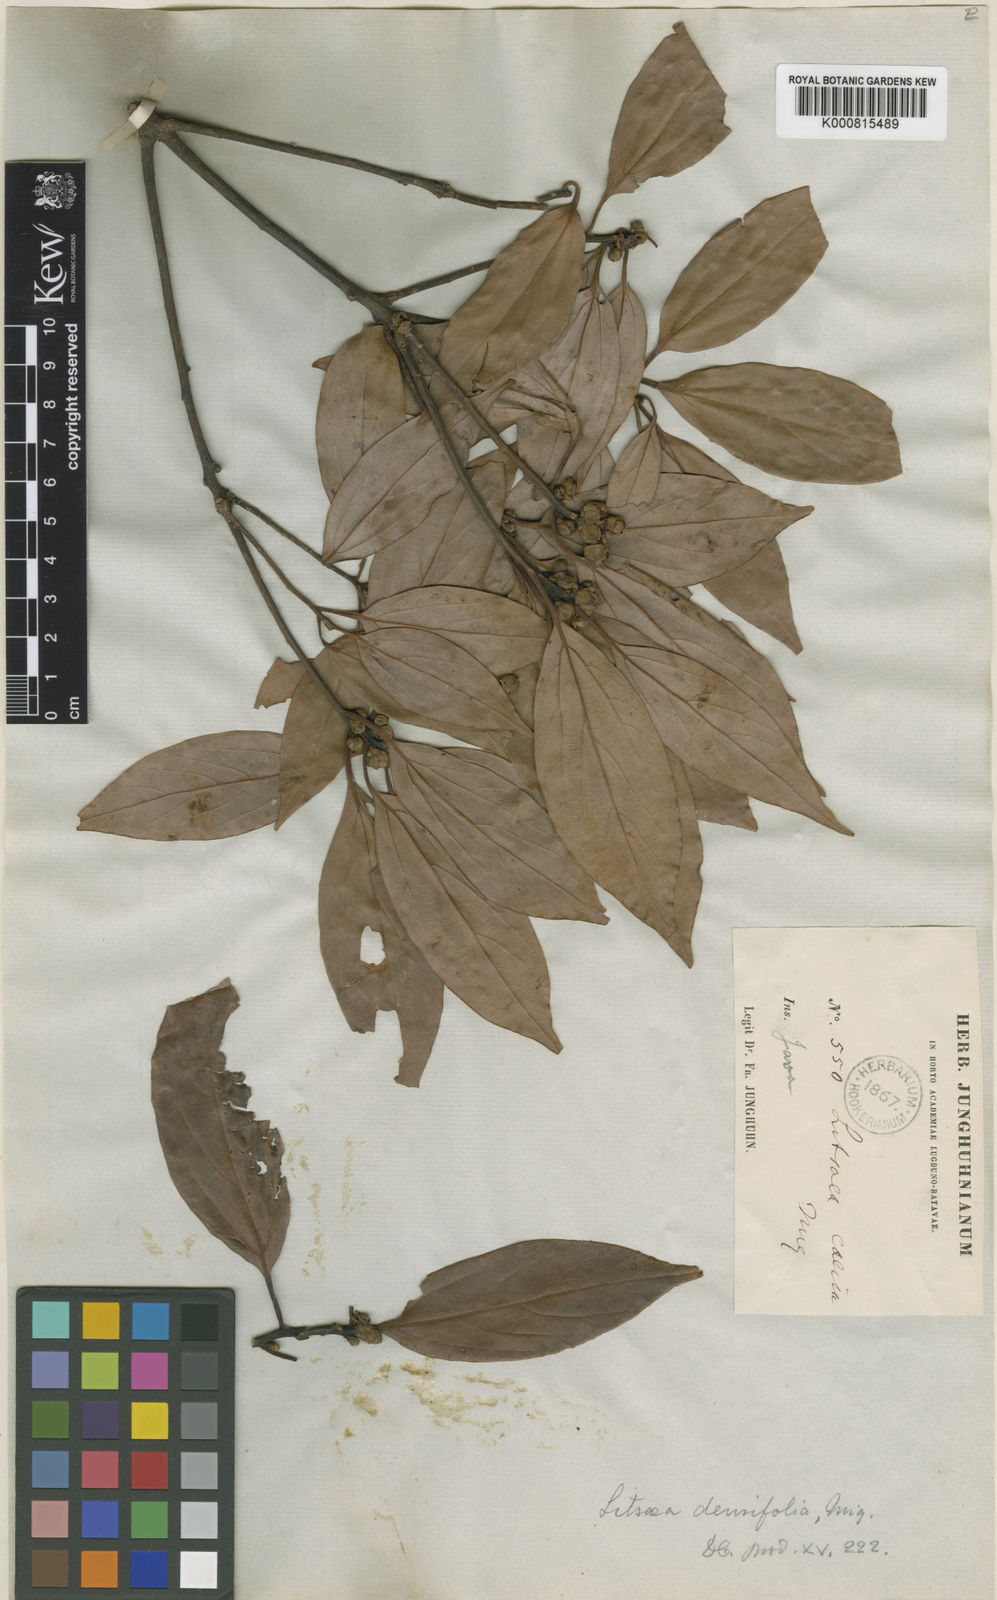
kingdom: Plantae
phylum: Tracheophyta
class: Magnoliopsida
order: Laurales
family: Lauraceae
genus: Neolitsea
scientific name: Neolitsea
